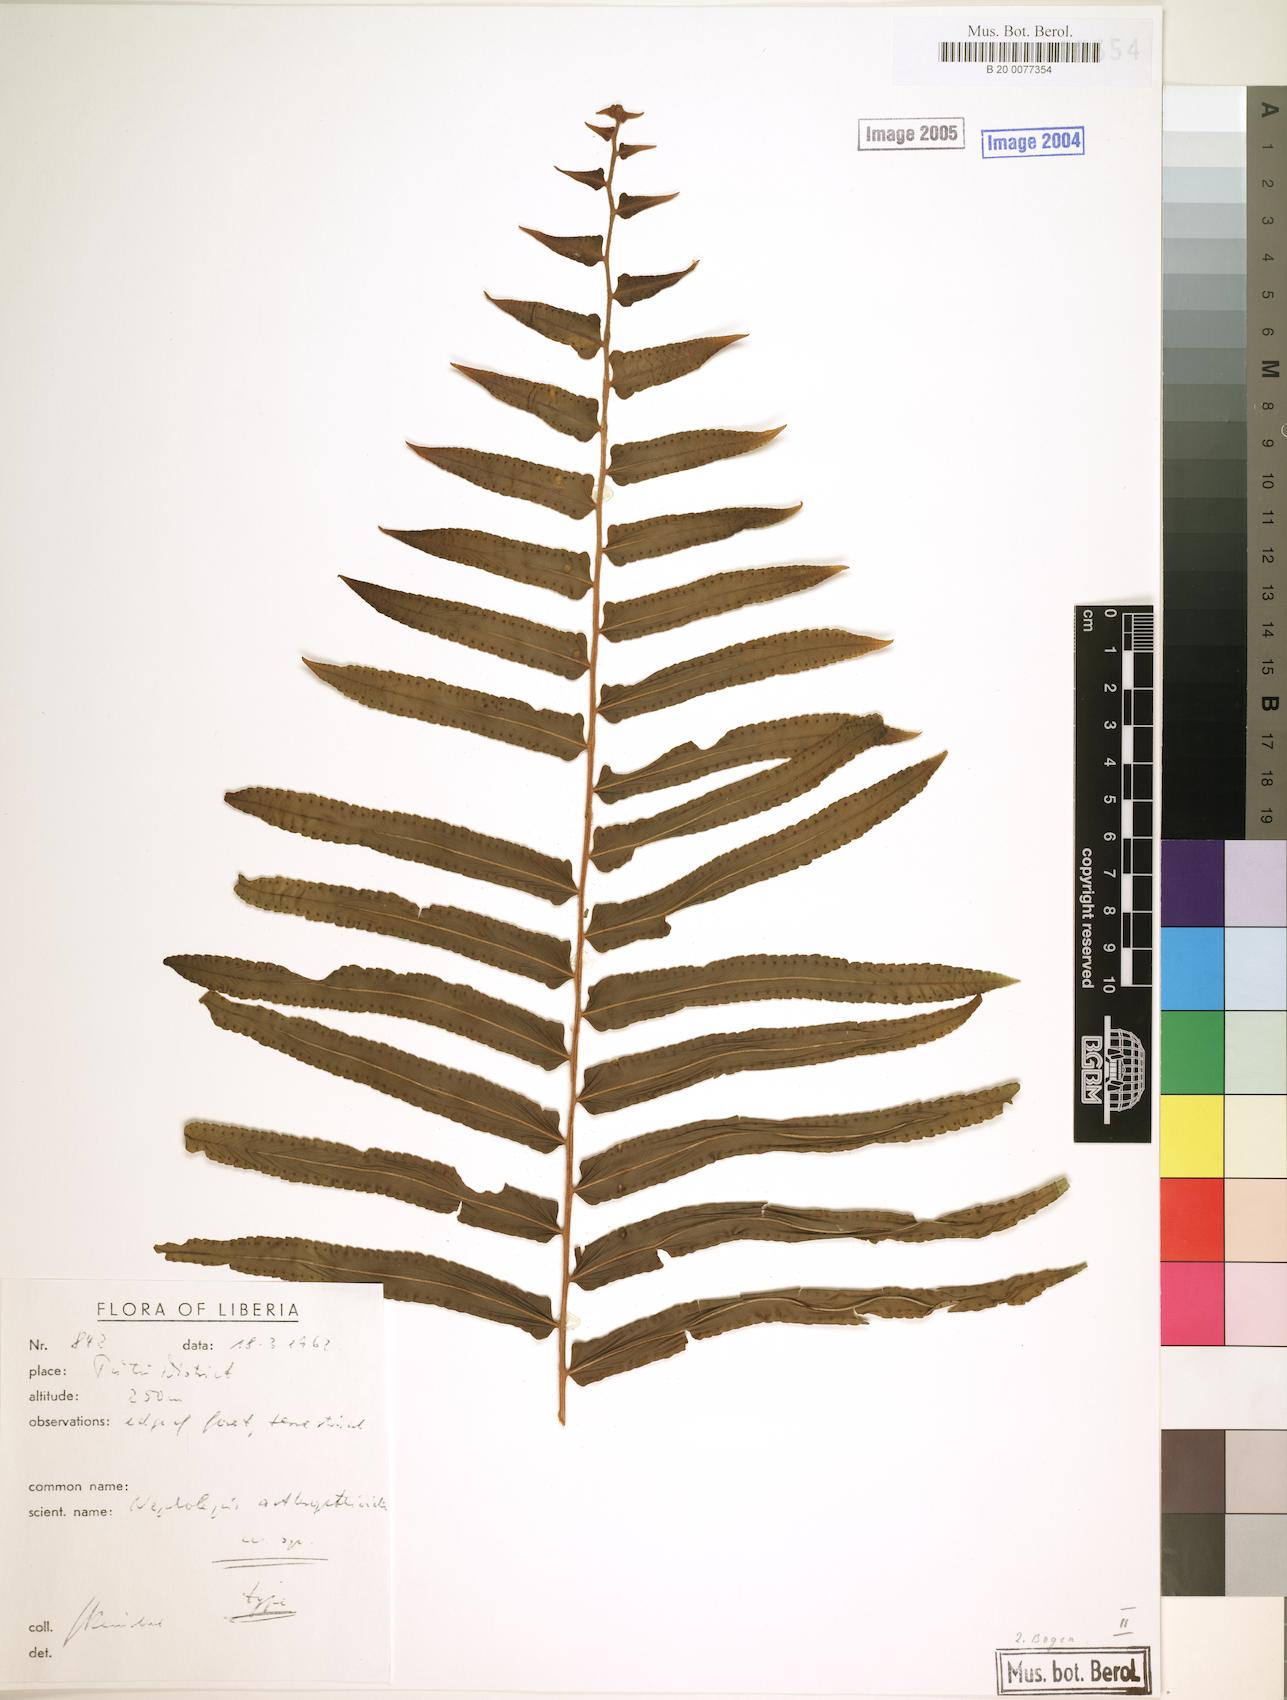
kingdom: Plantae
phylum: Tracheophyta
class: Polypodiopsida
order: Polypodiales
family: Nephrolepidaceae
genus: Nephrolepis
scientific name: Nephrolepis biserrata
